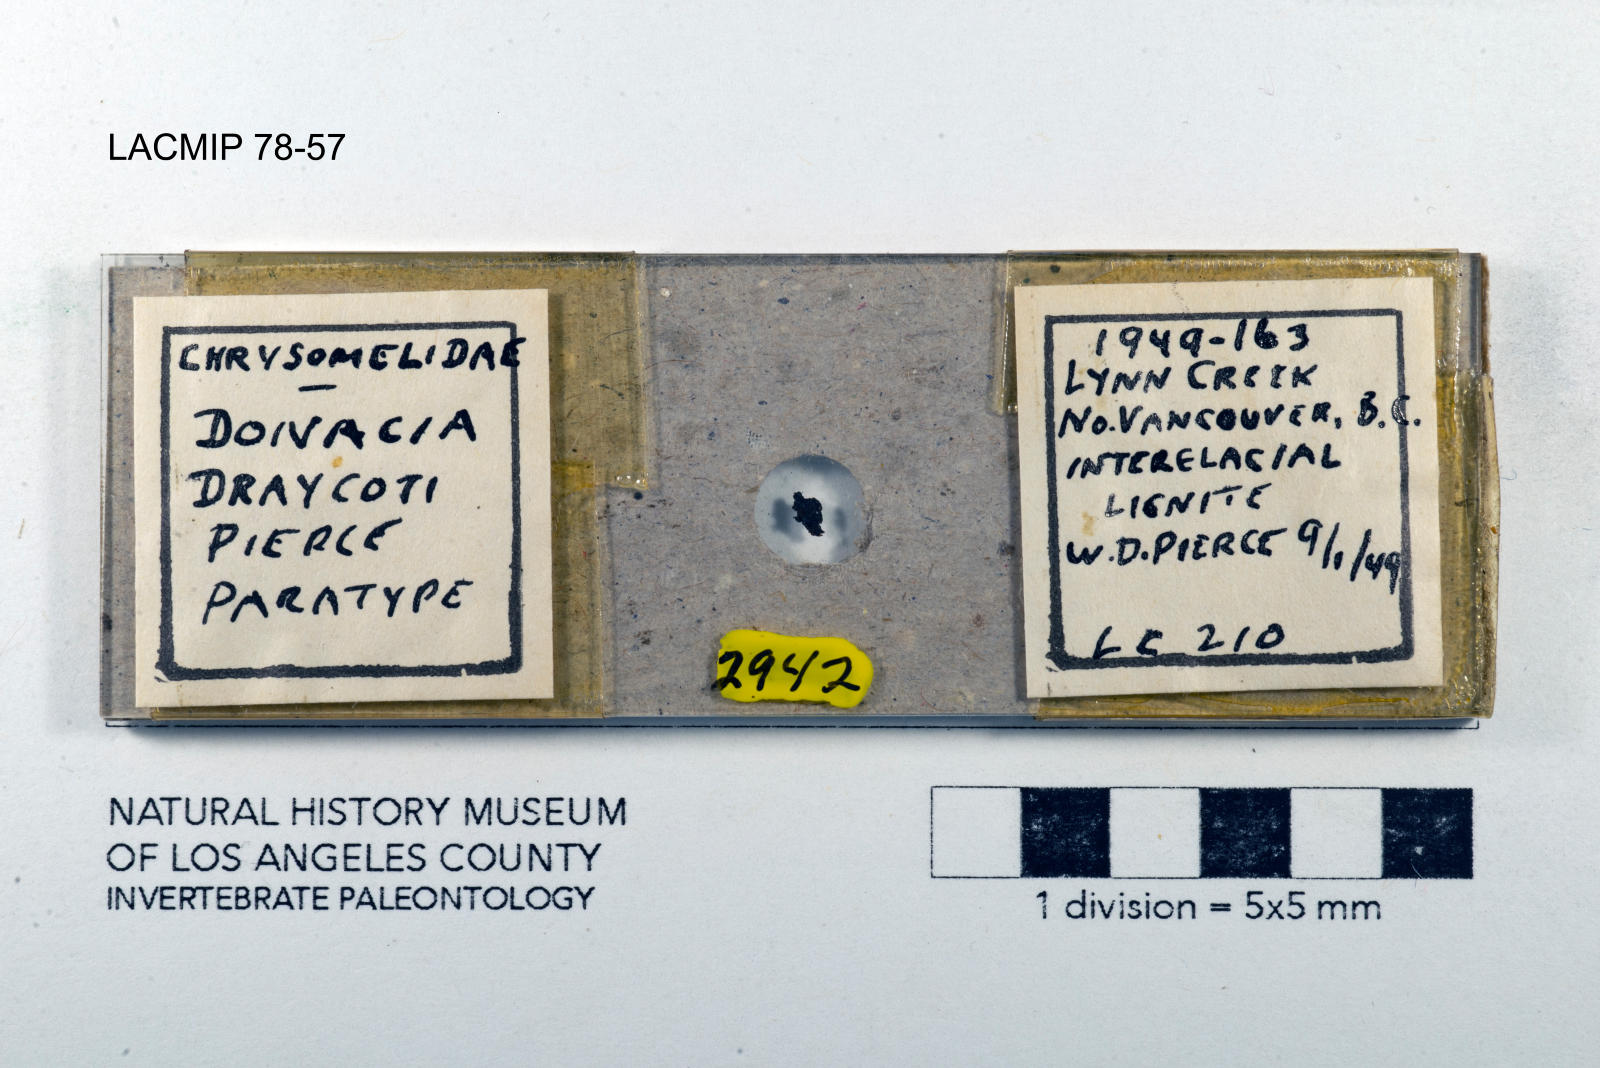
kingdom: Animalia
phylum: Arthropoda
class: Insecta
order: Coleoptera
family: Chrysomelidae
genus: Donacia
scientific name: Donacia draycoti
